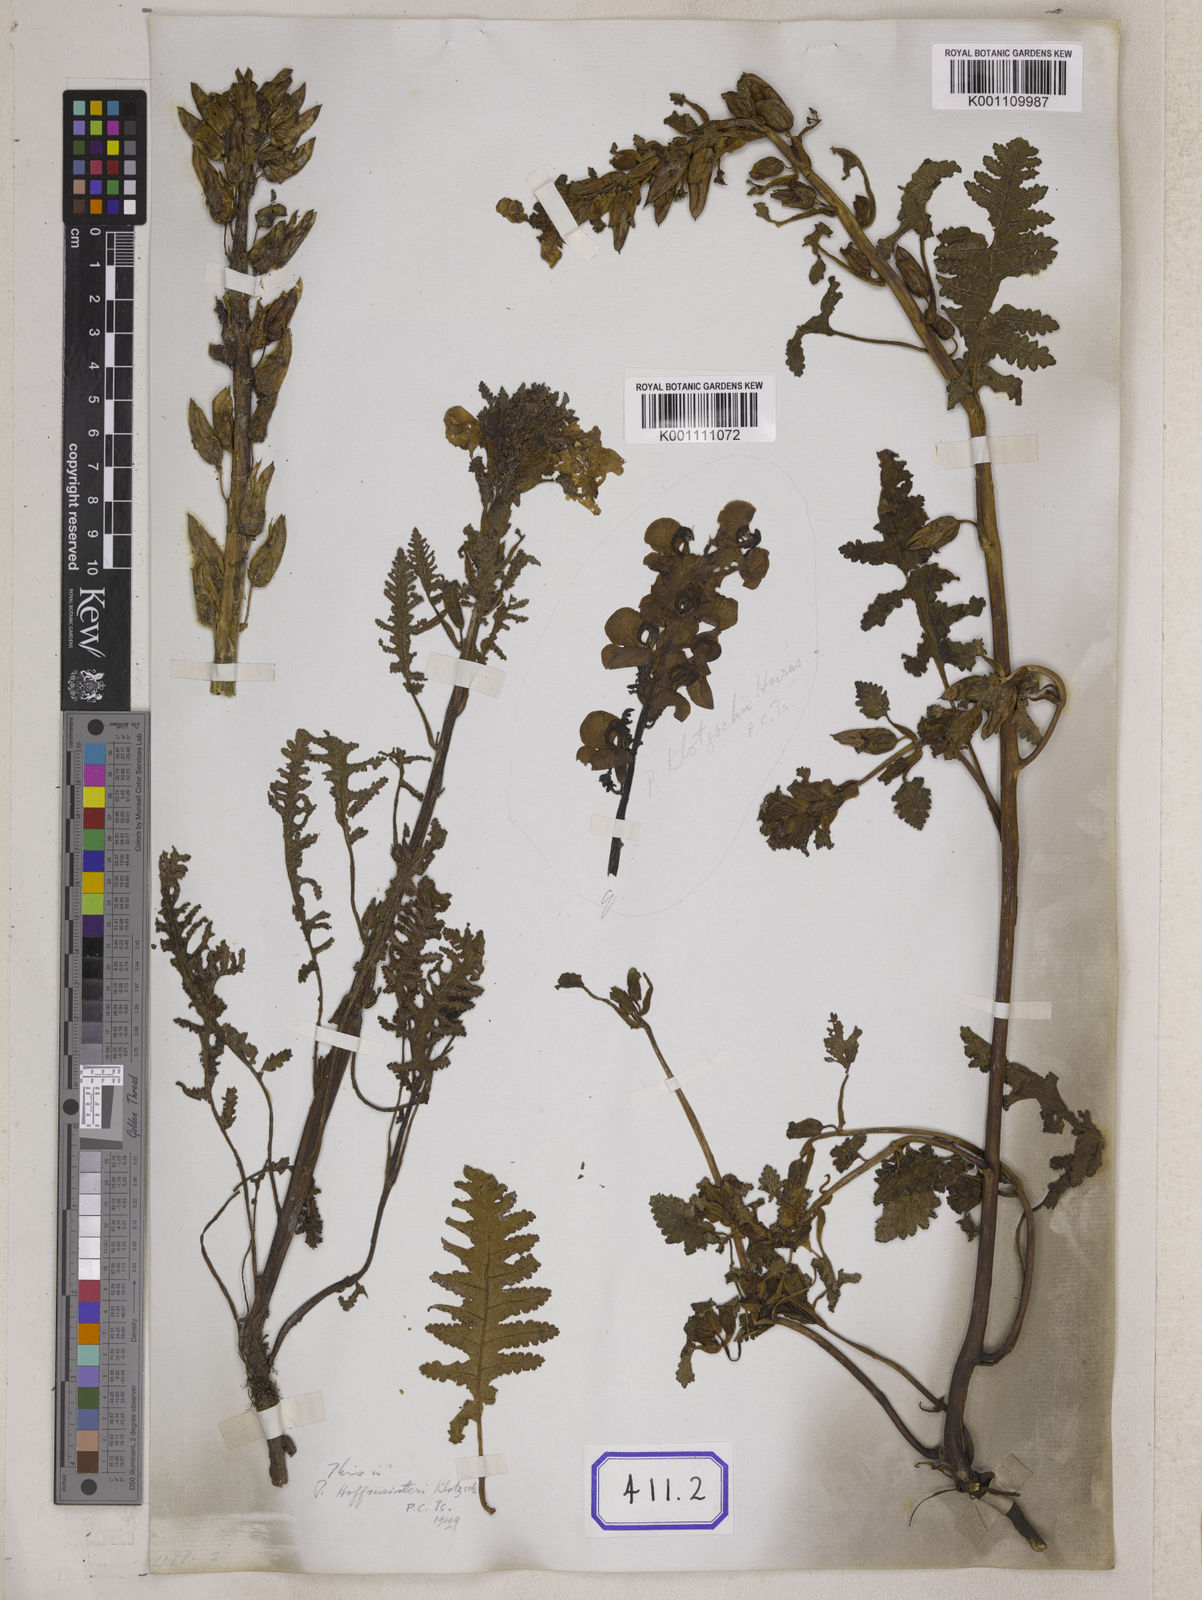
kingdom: Plantae
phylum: Tracheophyta
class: Magnoliopsida
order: Lamiales
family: Orobanchaceae
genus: Pedicularis
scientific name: Pedicularis megalantha
